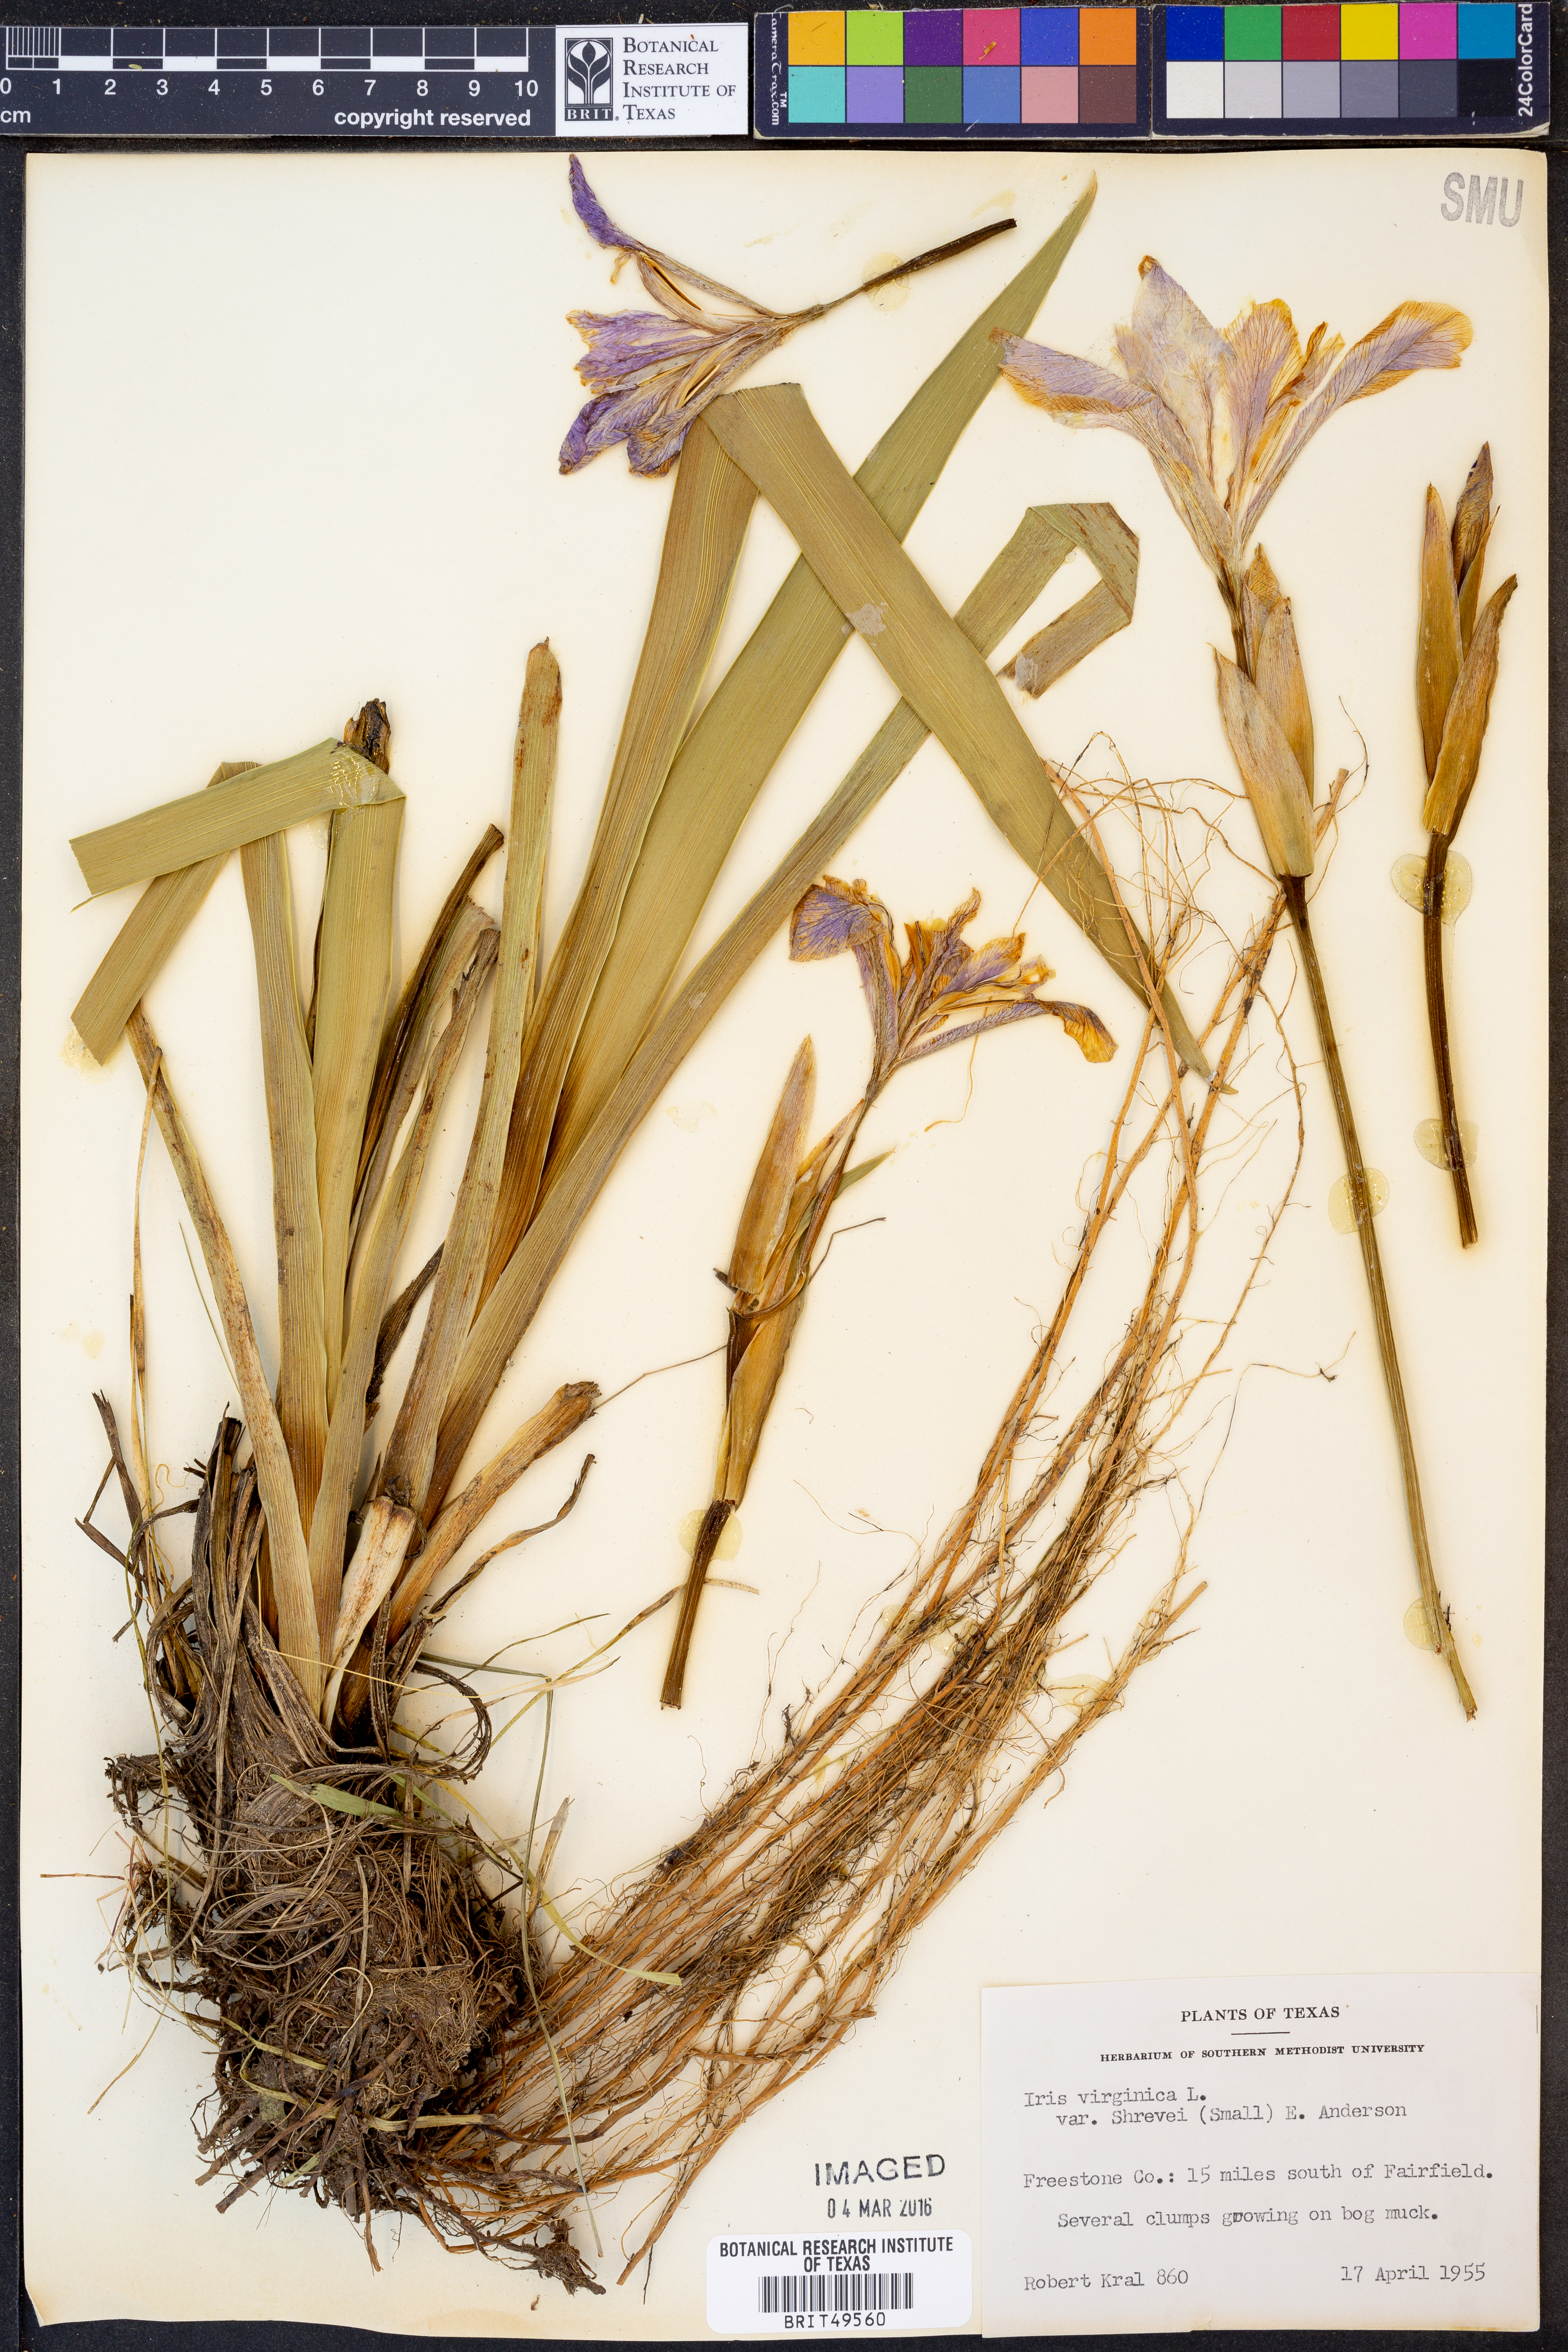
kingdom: Plantae
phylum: Tracheophyta
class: Liliopsida
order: Asparagales
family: Iridaceae
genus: Iris
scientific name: Iris virginica
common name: Southern blue flag
